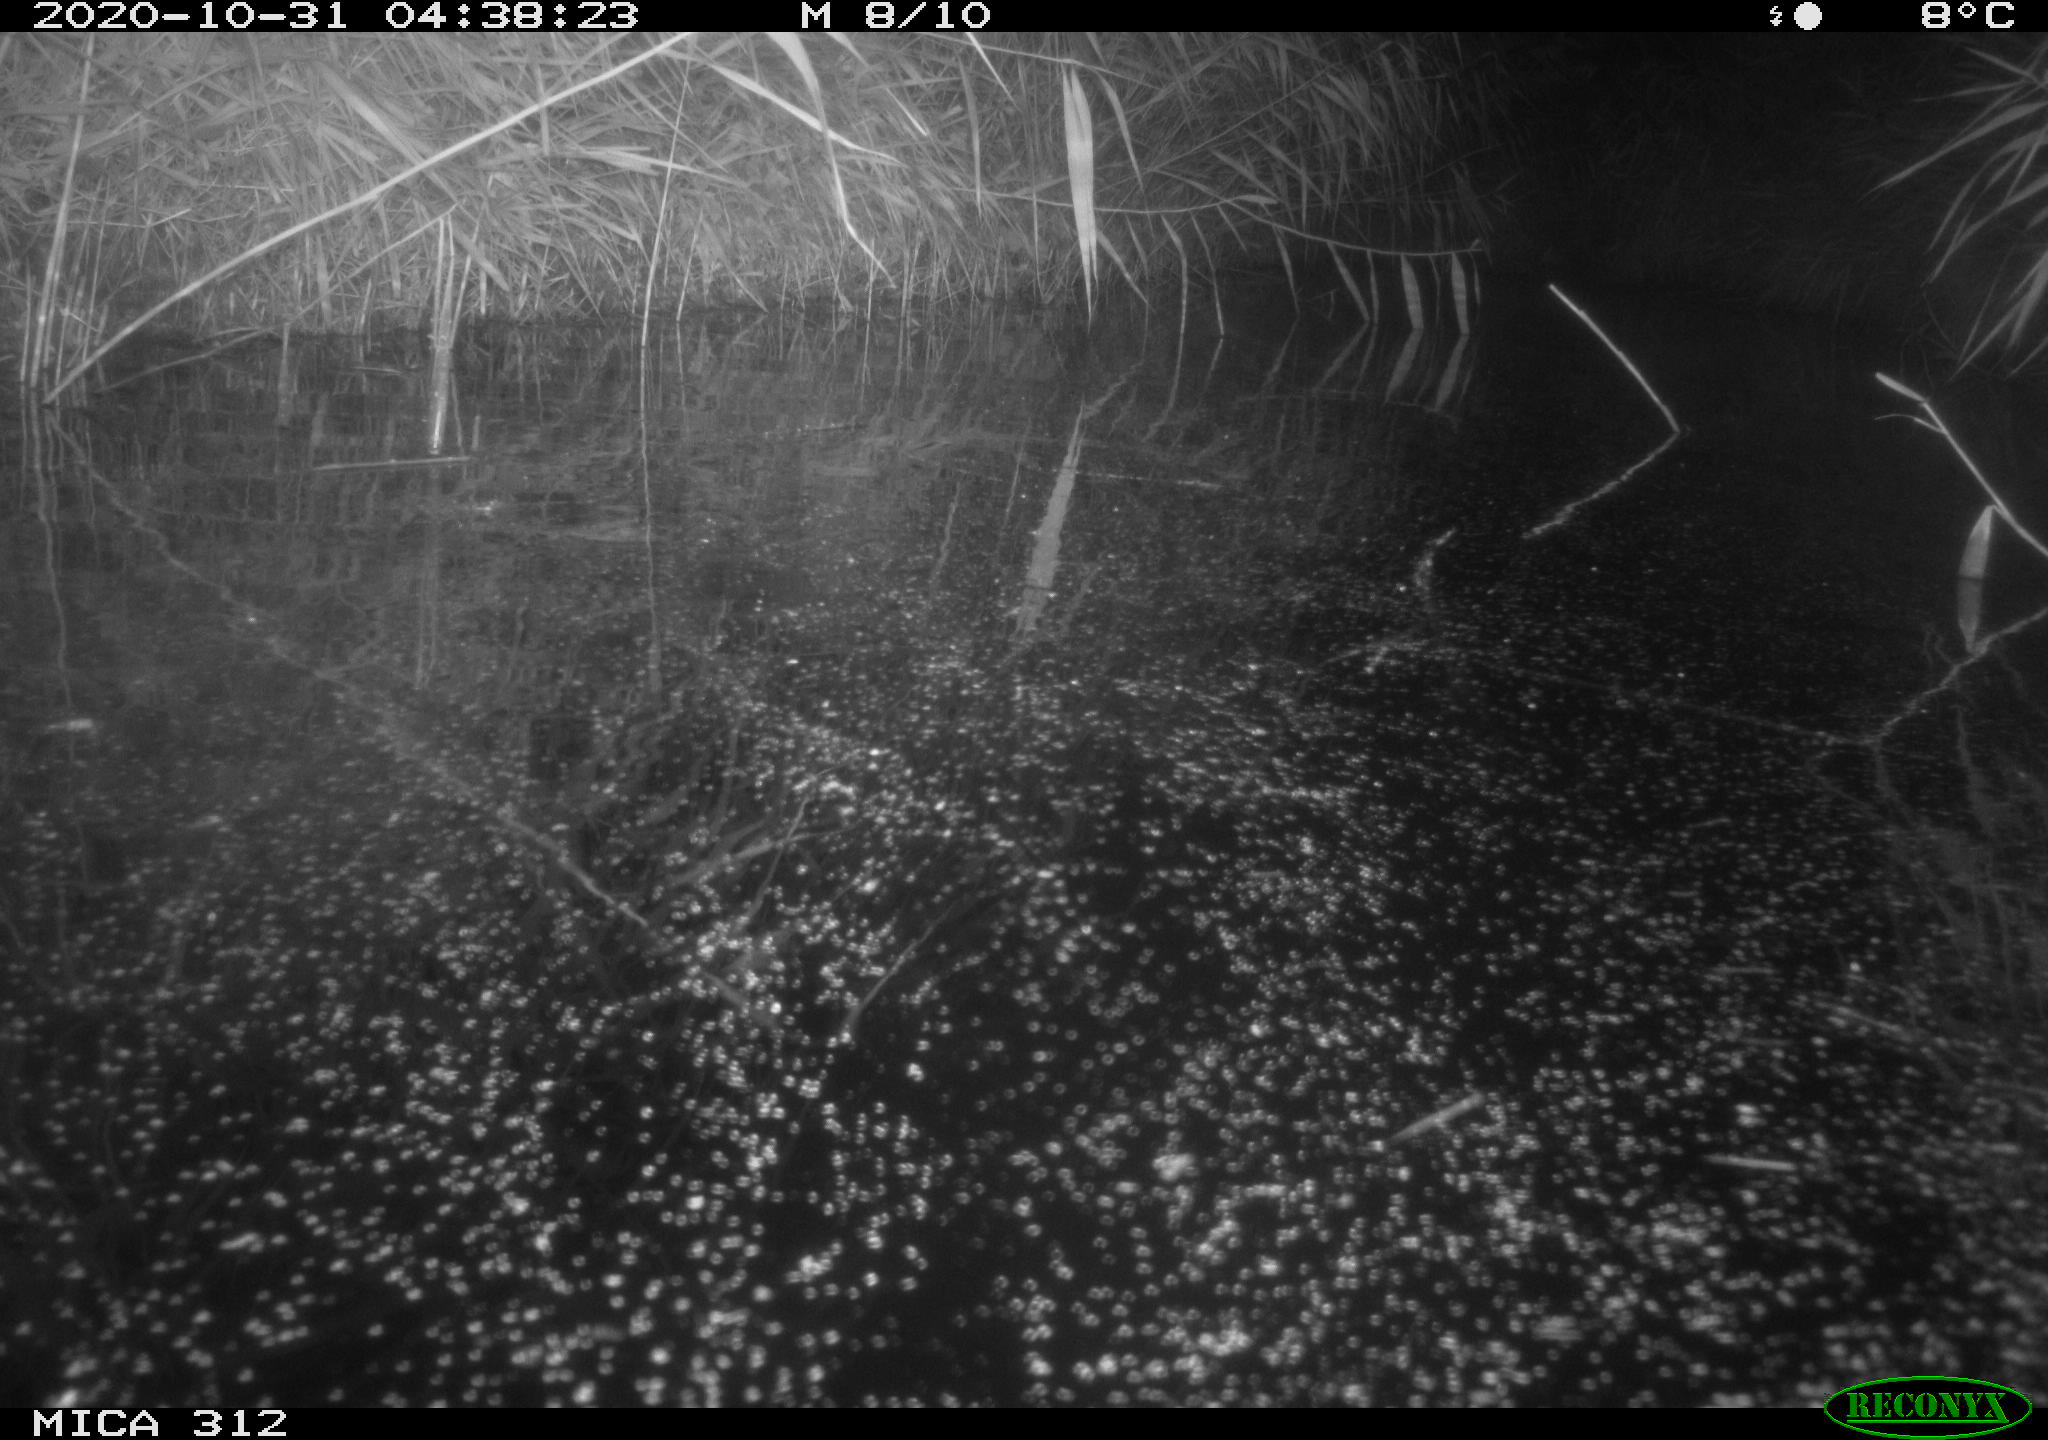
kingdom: Animalia
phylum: Chordata
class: Mammalia
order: Rodentia
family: Muridae
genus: Rattus
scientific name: Rattus norvegicus
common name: Brown rat
